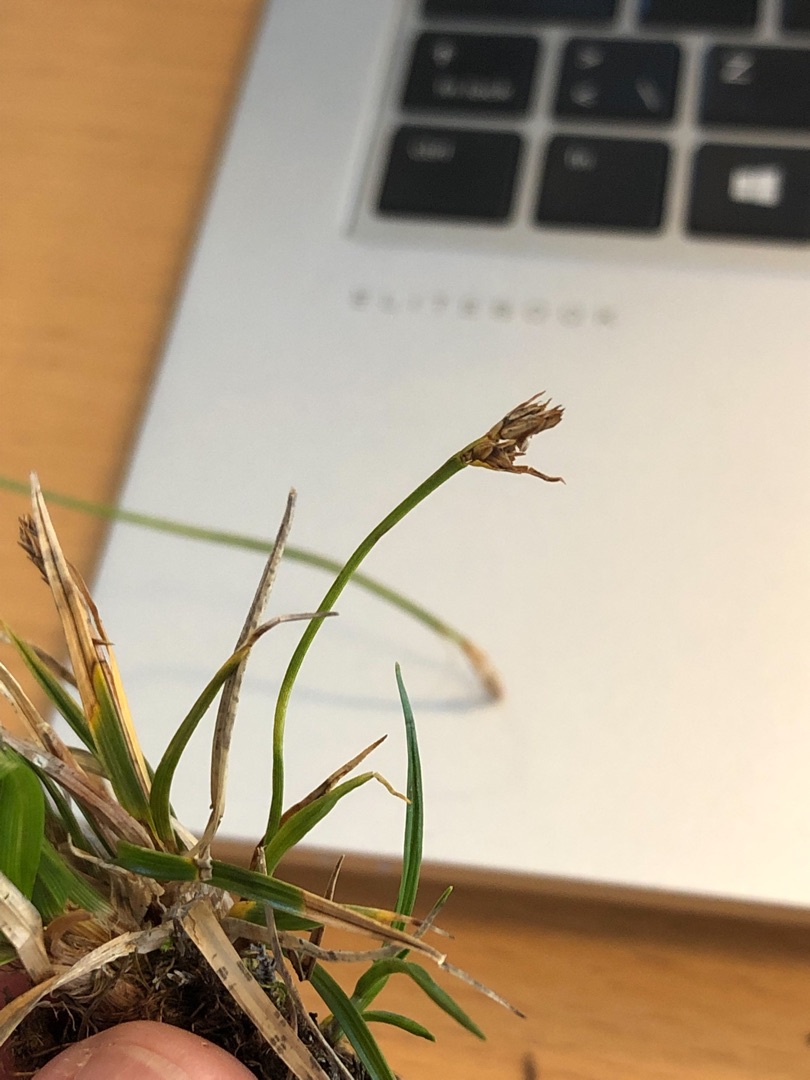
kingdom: Plantae
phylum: Tracheophyta
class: Liliopsida
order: Poales
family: Cyperaceae
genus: Carex
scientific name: Carex pilulifera
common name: Pille-star
